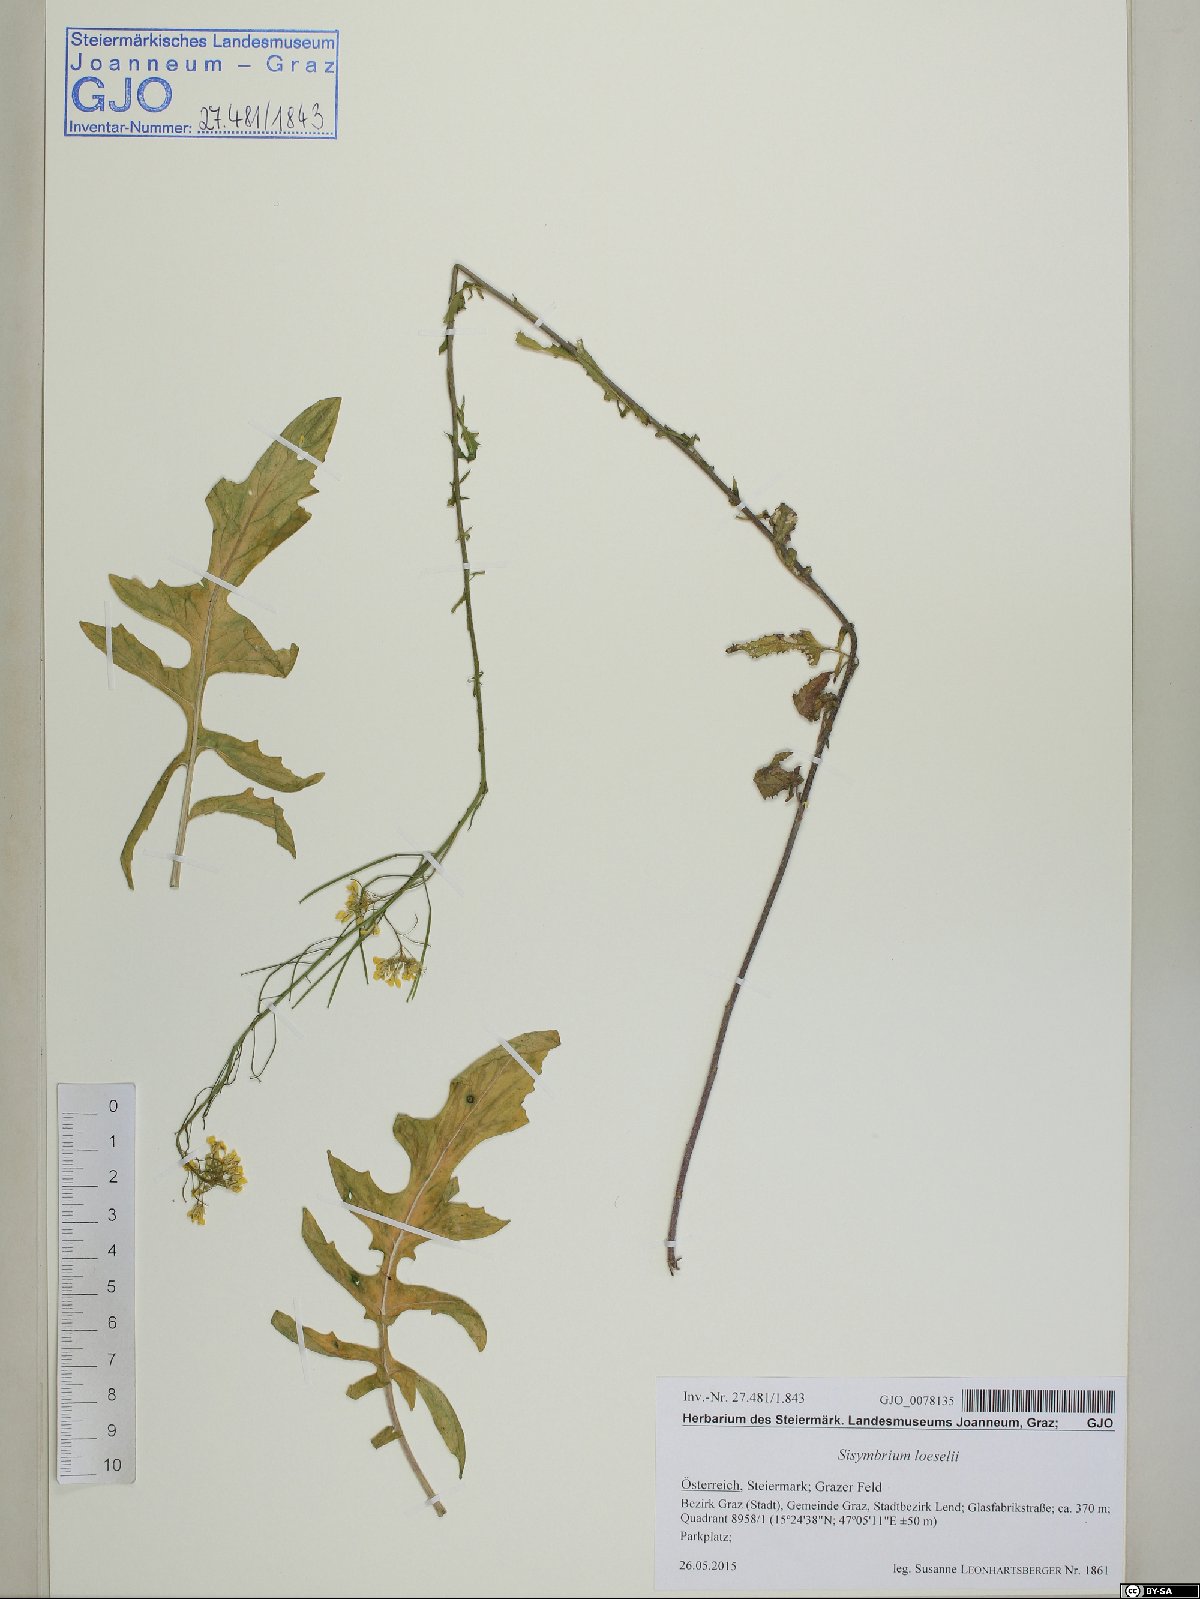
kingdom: Plantae
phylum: Tracheophyta
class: Magnoliopsida
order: Brassicales
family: Brassicaceae
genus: Sisymbrium
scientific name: Sisymbrium loeselii
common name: False london-rocket
